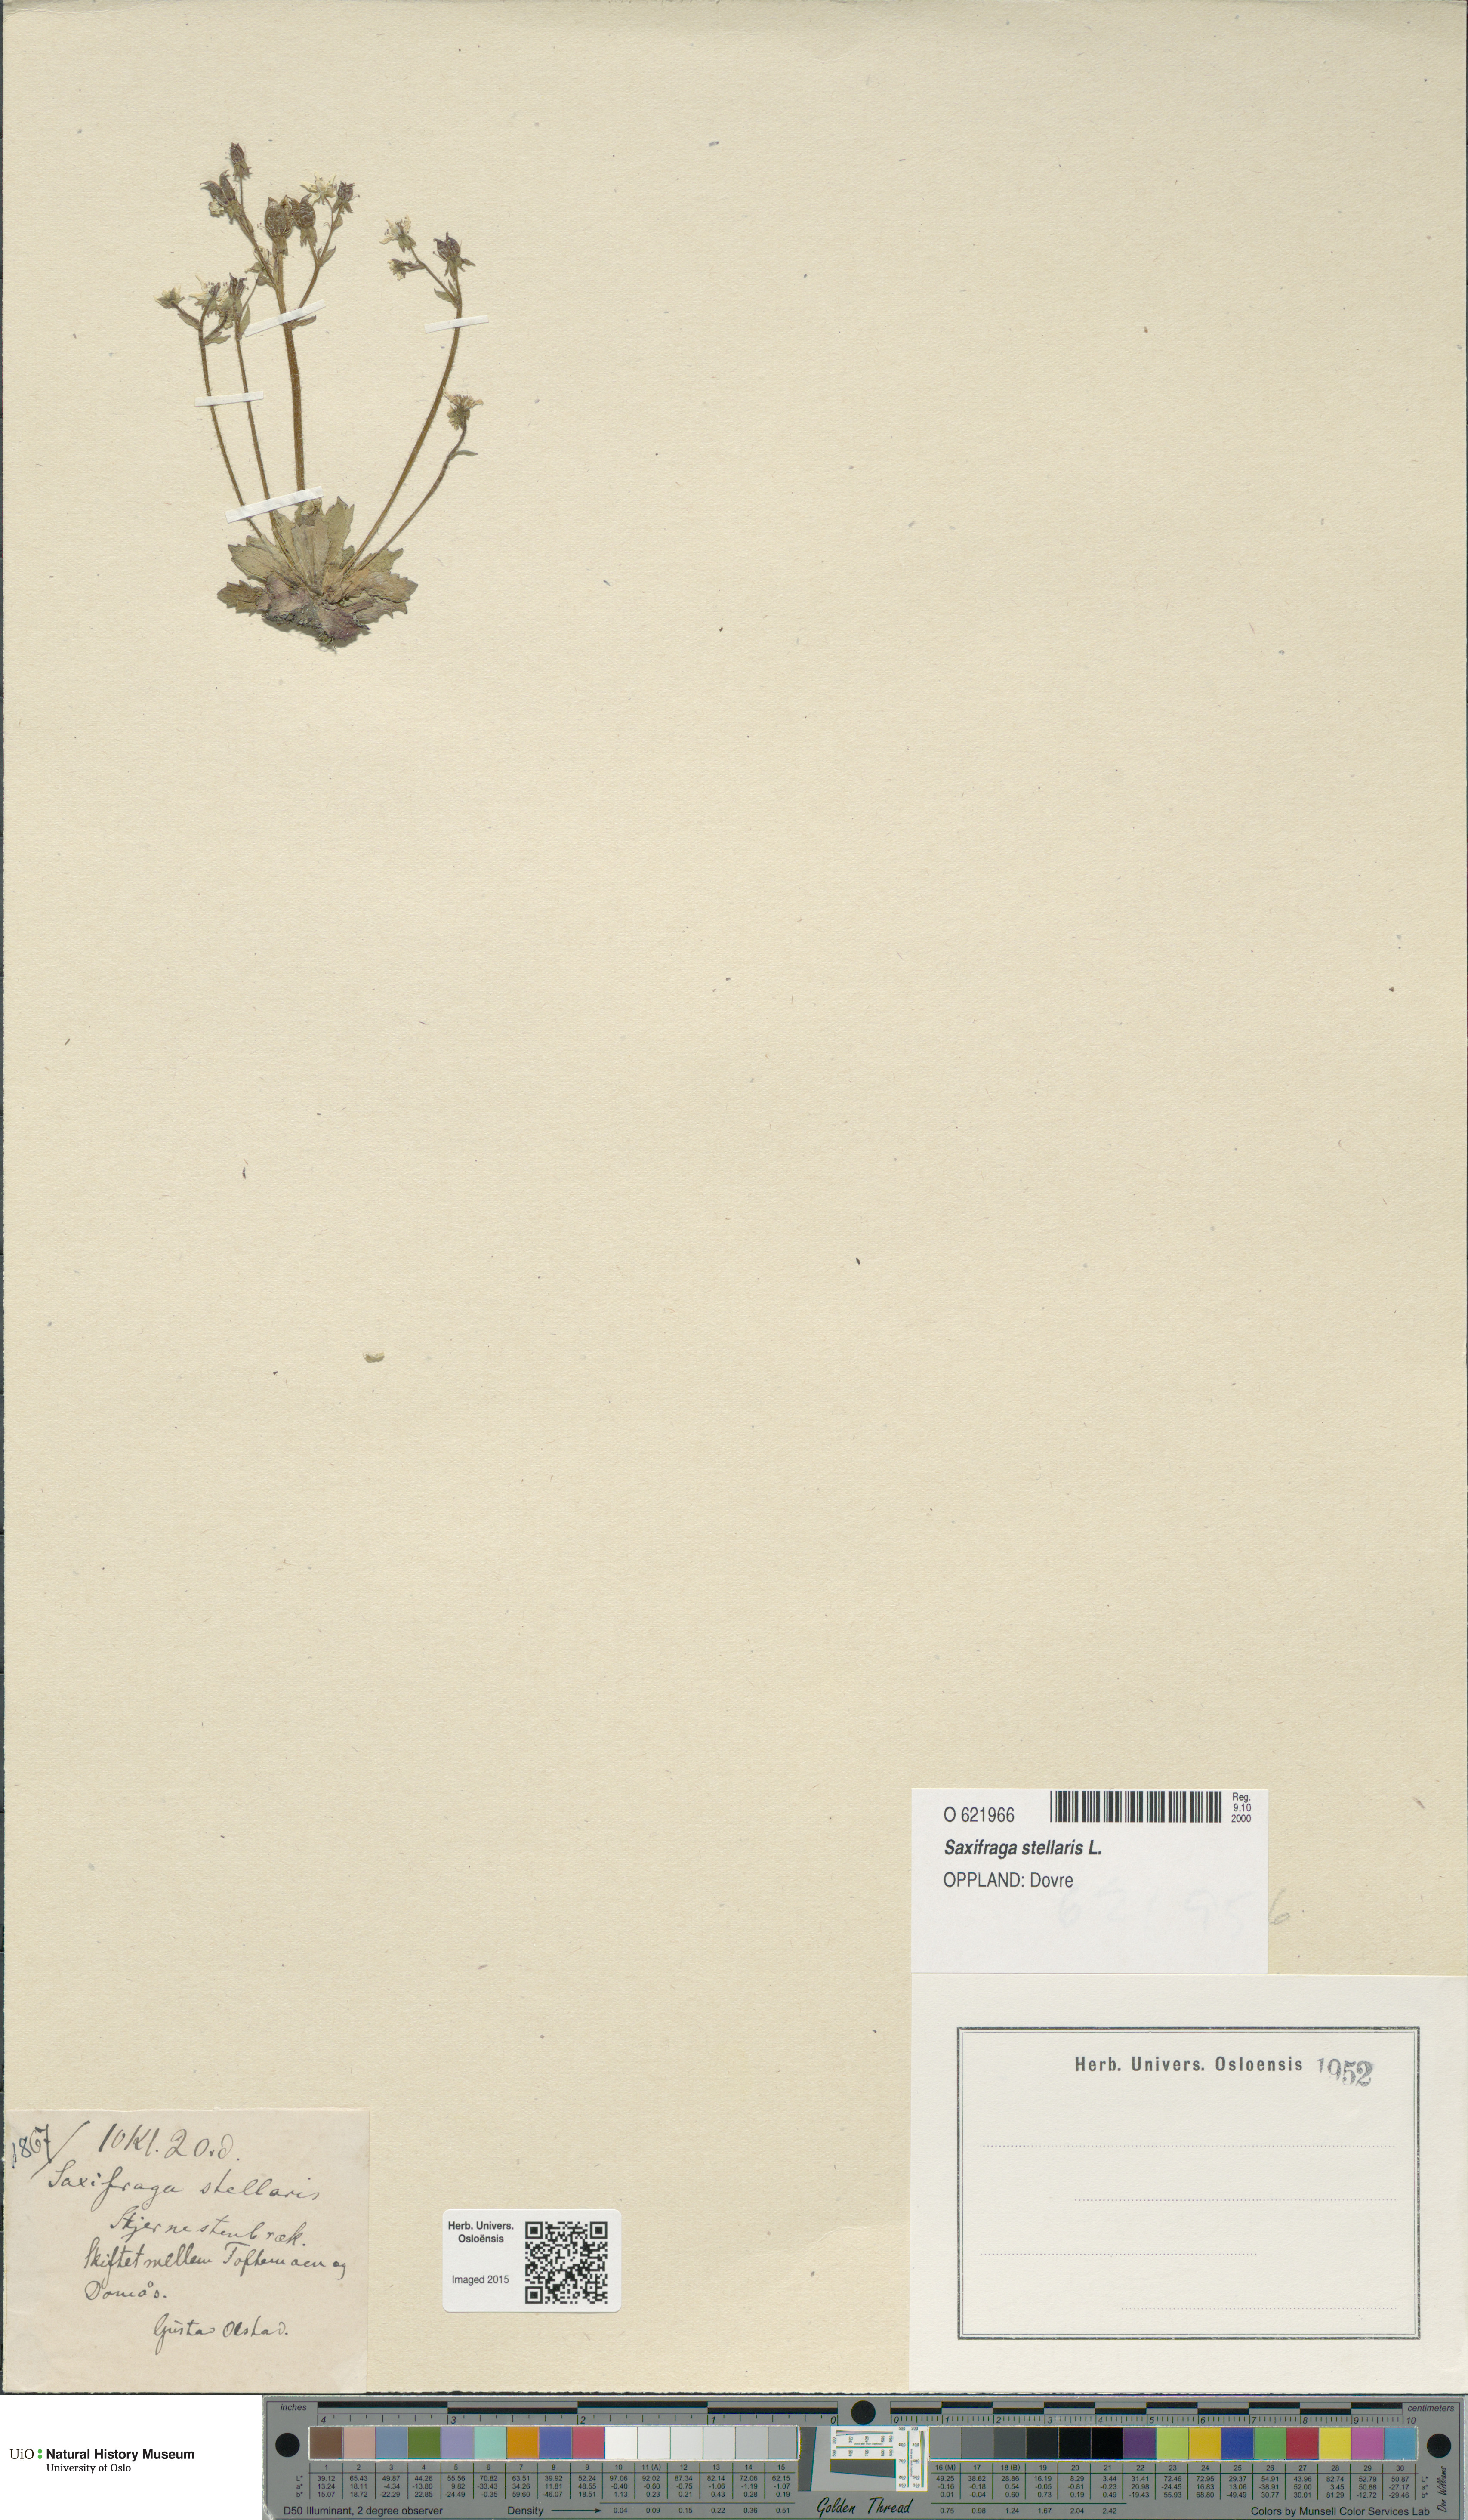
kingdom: Plantae
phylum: Tracheophyta
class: Magnoliopsida
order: Saxifragales
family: Saxifragaceae
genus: Micranthes
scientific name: Micranthes stellaris
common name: Starry saxifrage
